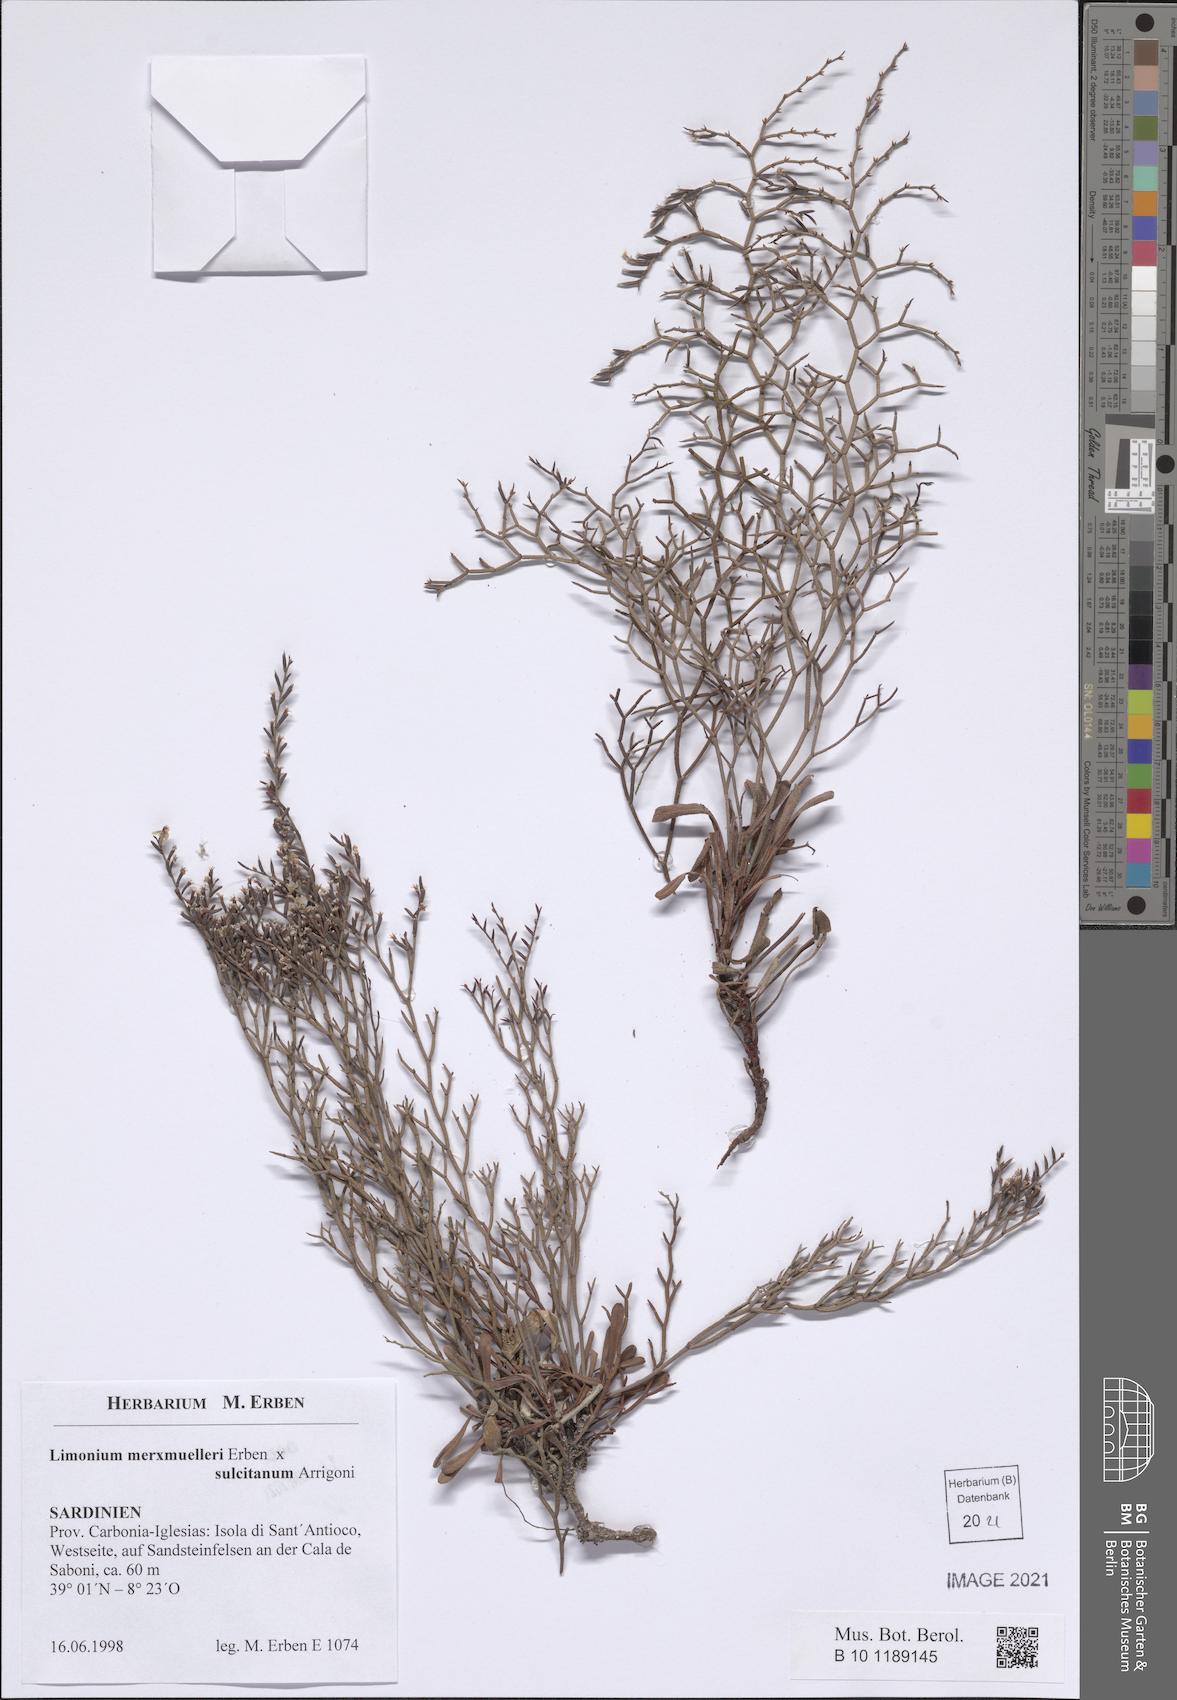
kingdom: Plantae
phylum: Tracheophyta
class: Magnoliopsida
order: Caryophyllales
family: Plumbaginaceae
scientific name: Plumbaginaceae
